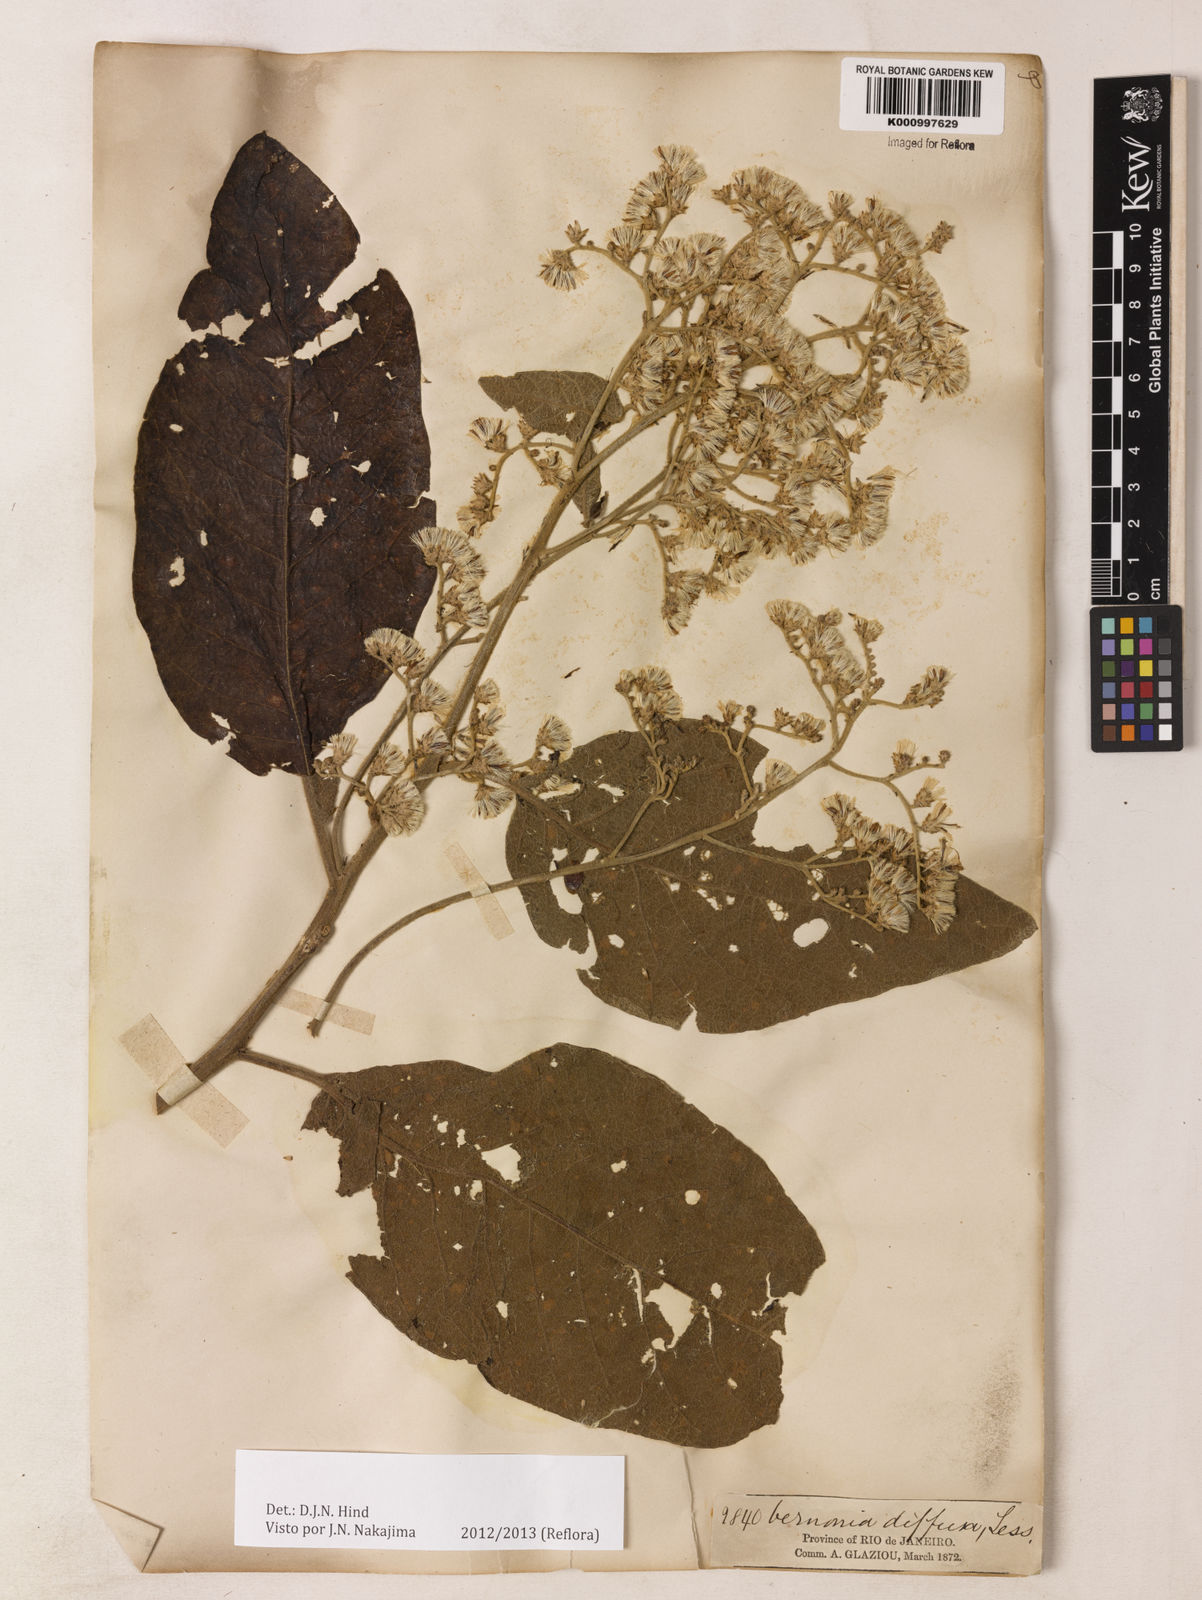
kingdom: Plantae
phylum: Tracheophyta
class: Magnoliopsida
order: Asterales
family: Asteraceae
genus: Vernonanthura
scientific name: Vernonanthura divaricata
